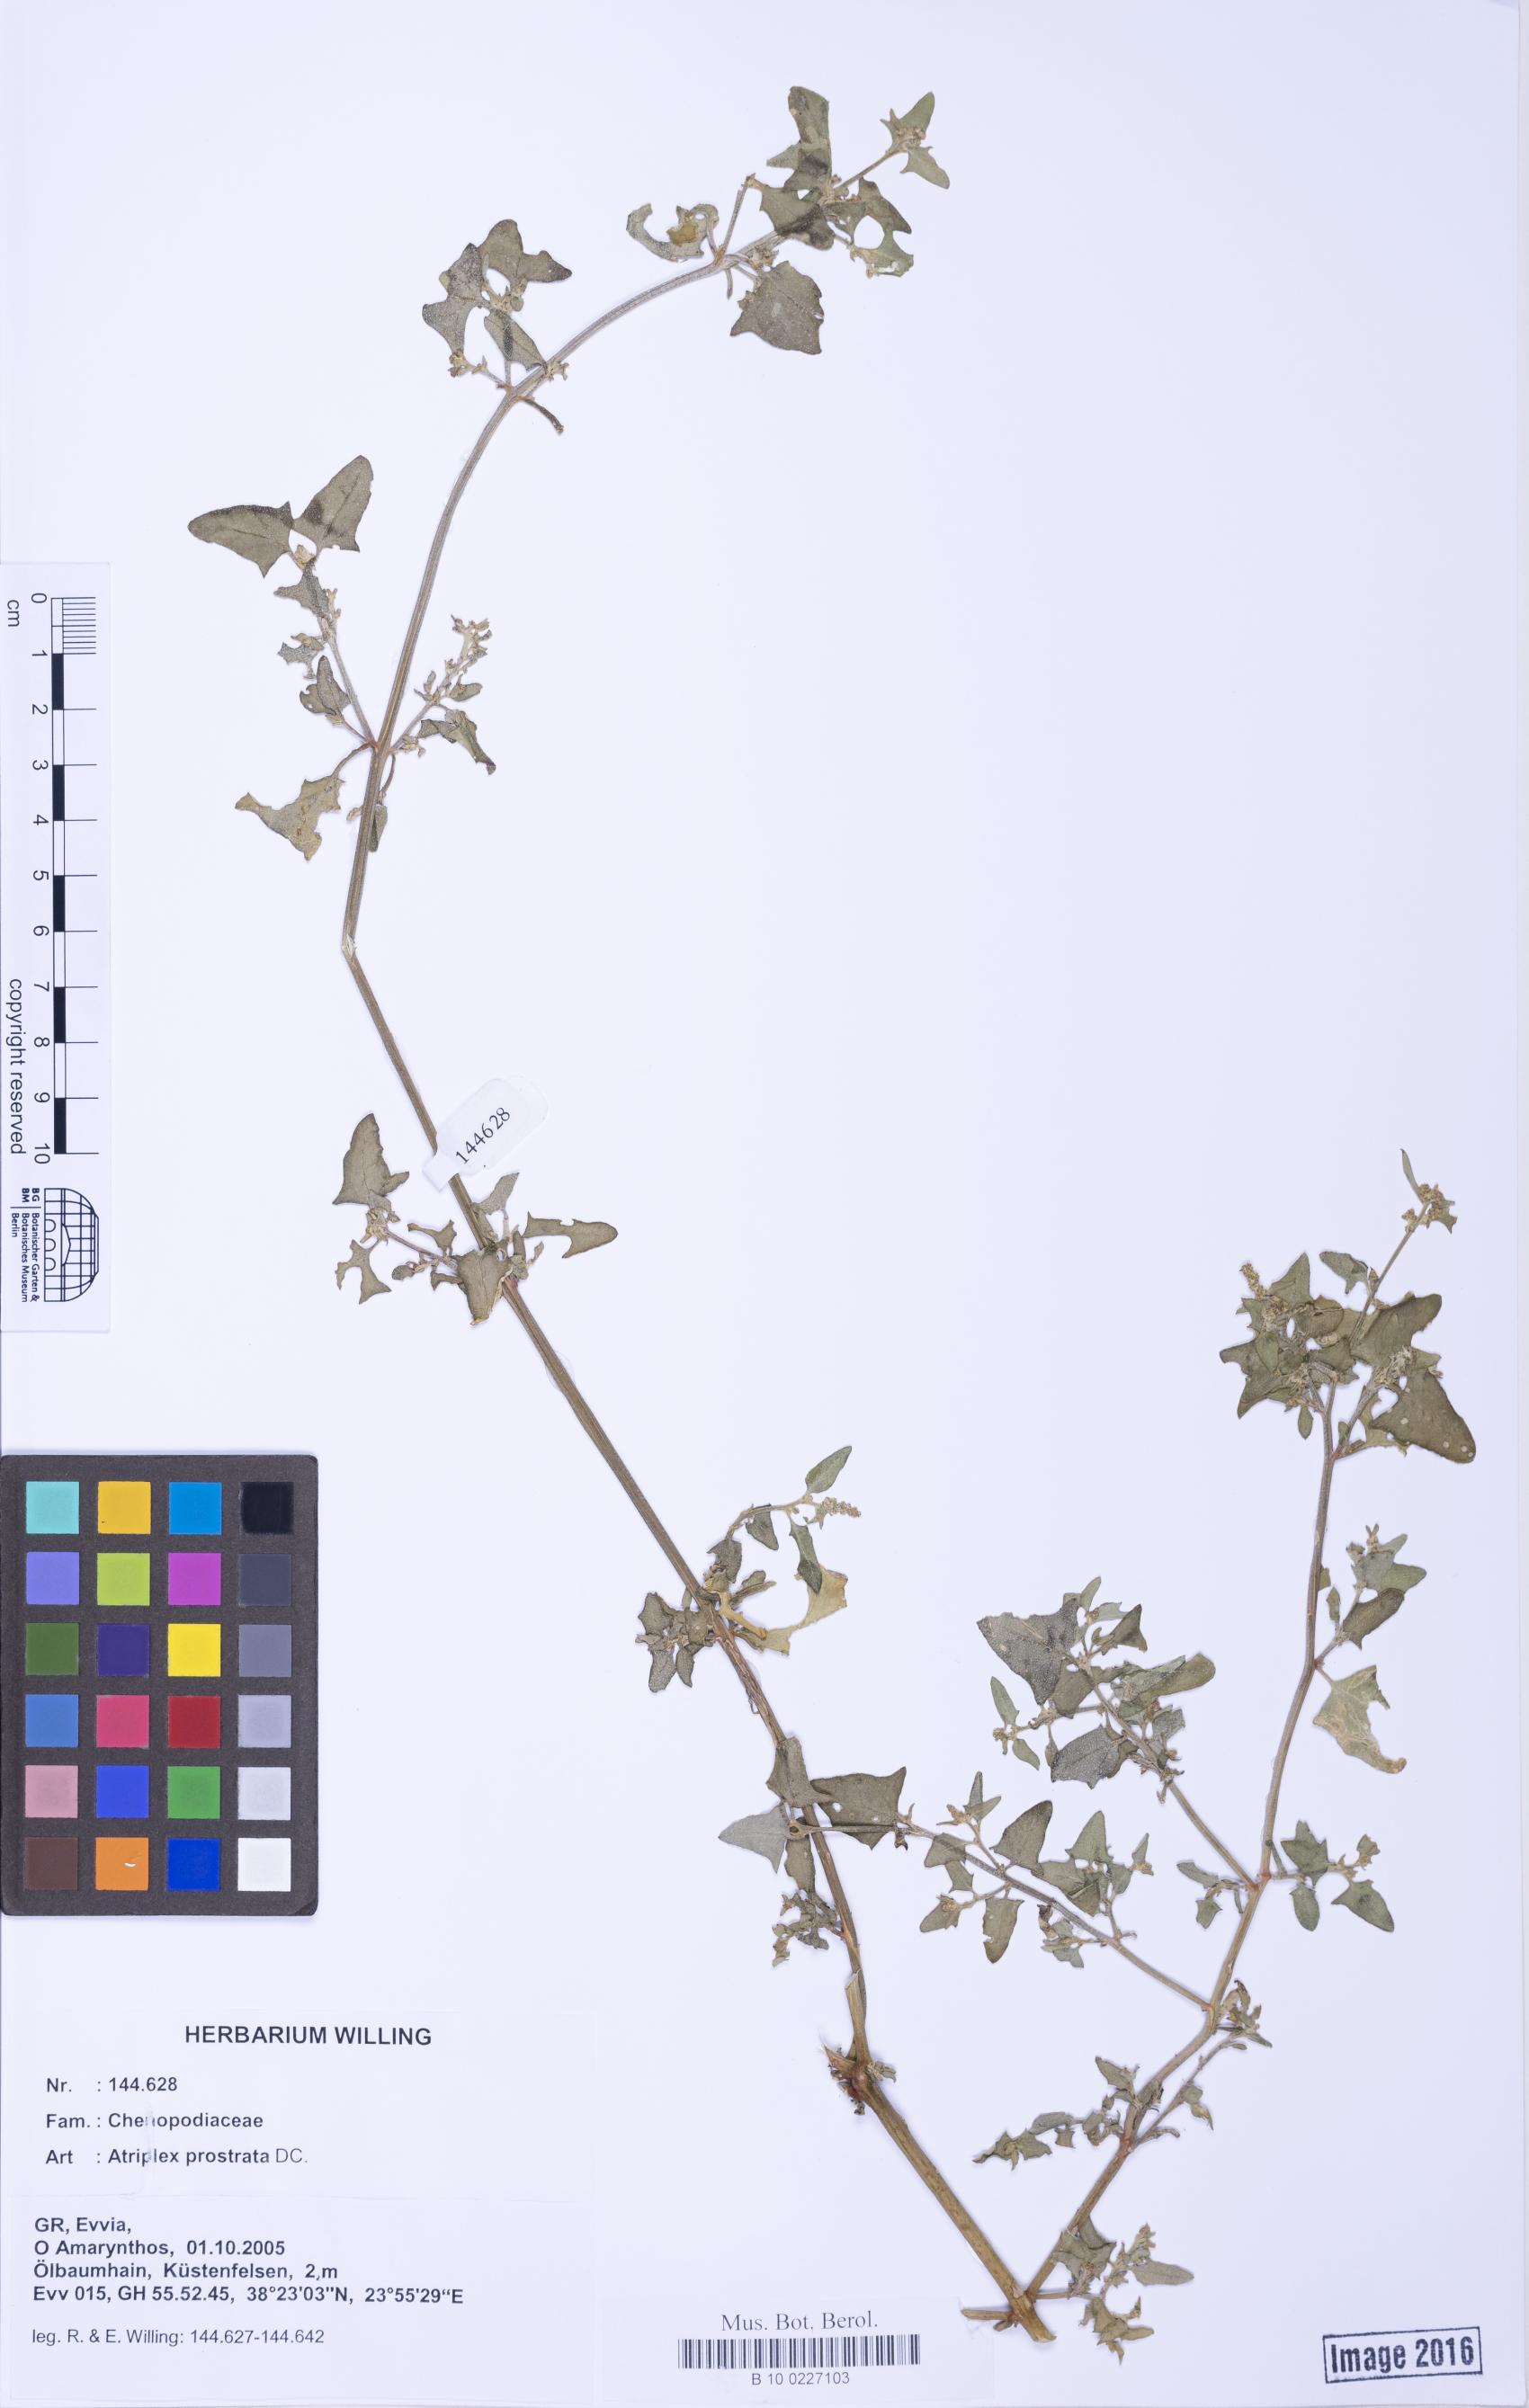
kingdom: Plantae
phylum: Tracheophyta
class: Magnoliopsida
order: Caryophyllales
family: Amaranthaceae
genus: Atriplex
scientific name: Atriplex prostrata
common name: Spear-leaved orache
